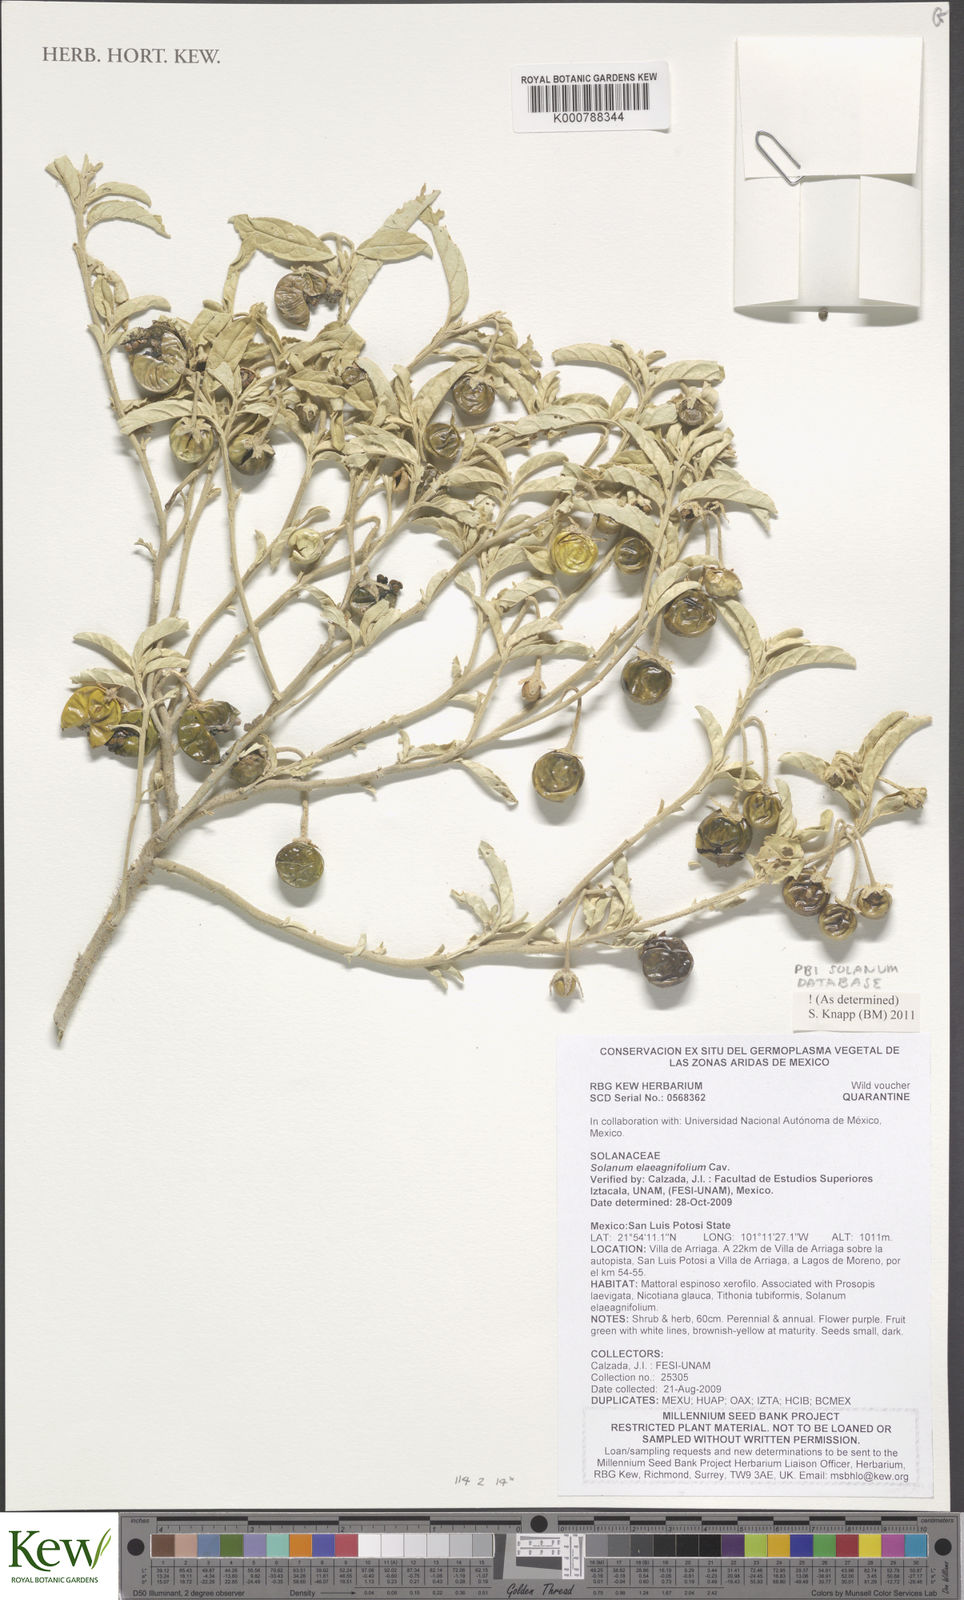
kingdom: Plantae
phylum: Tracheophyta
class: Magnoliopsida
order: Solanales
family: Solanaceae
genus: Solanum
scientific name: Solanum elaeagnifolium
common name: Silverleaf nightshade
